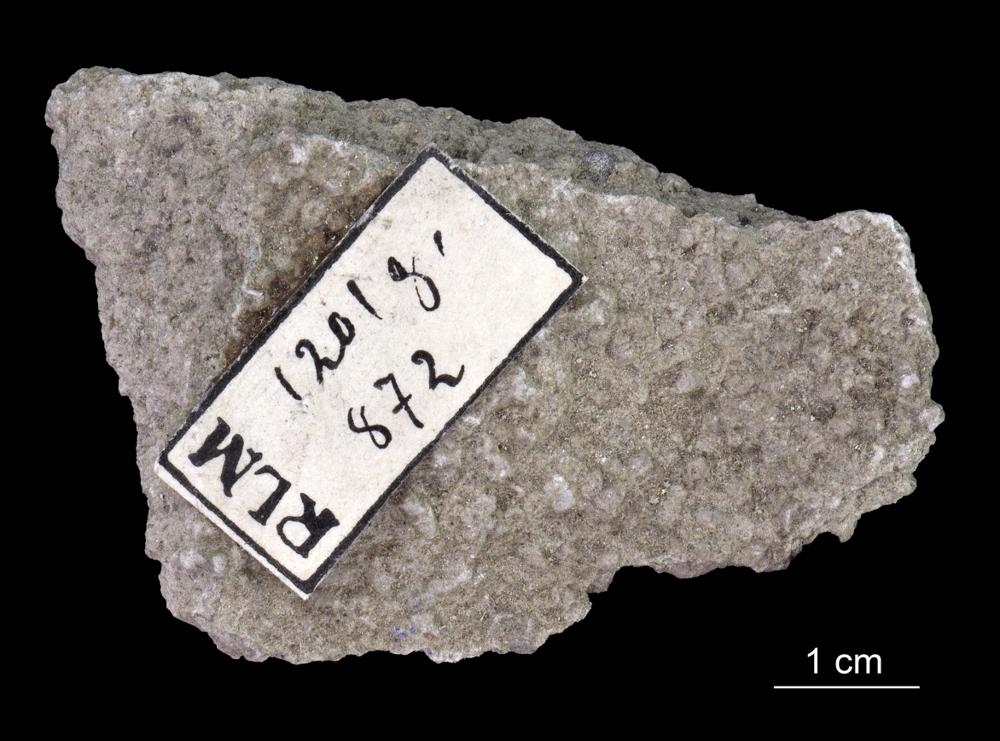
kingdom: Animalia
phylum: Annelida
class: Polychaeta
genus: Volborthella
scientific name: Volborthella tenuis
